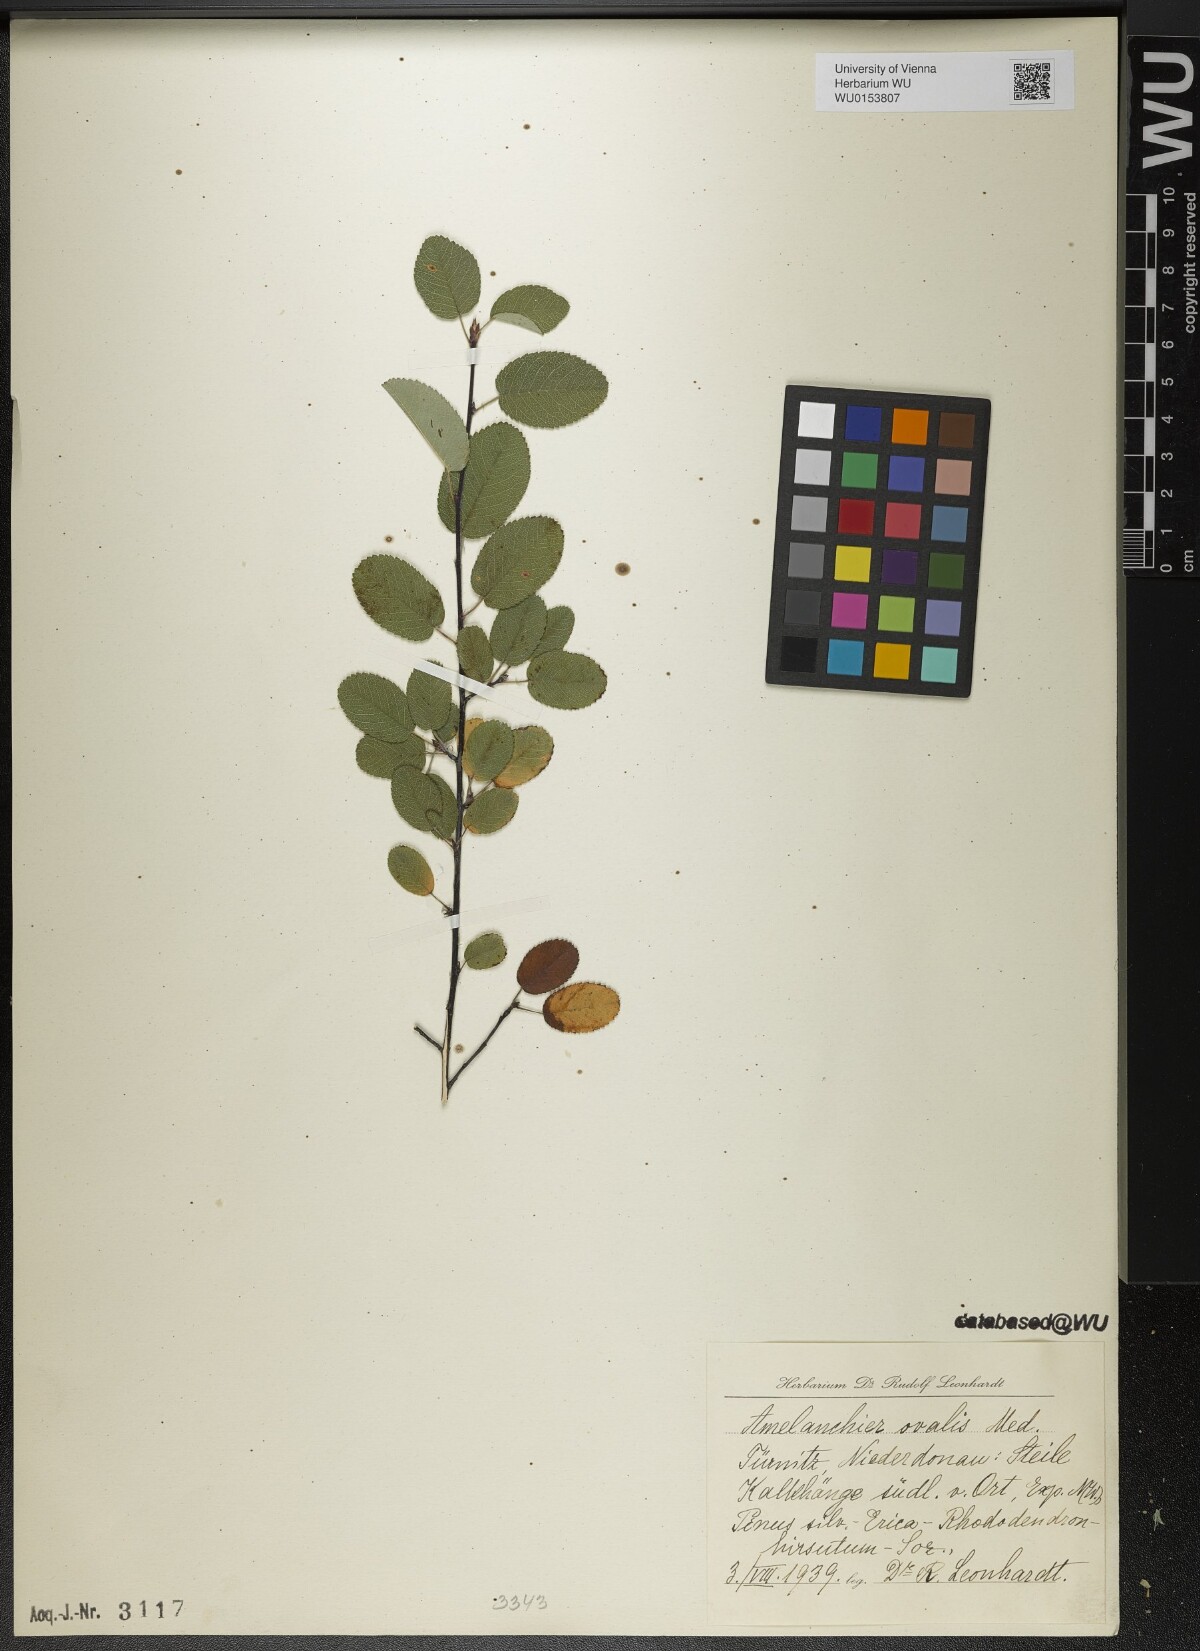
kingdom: Plantae
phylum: Tracheophyta
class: Magnoliopsida
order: Rosales
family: Rosaceae
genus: Amelanchier
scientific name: Amelanchier ovalis
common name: Serviceberry
